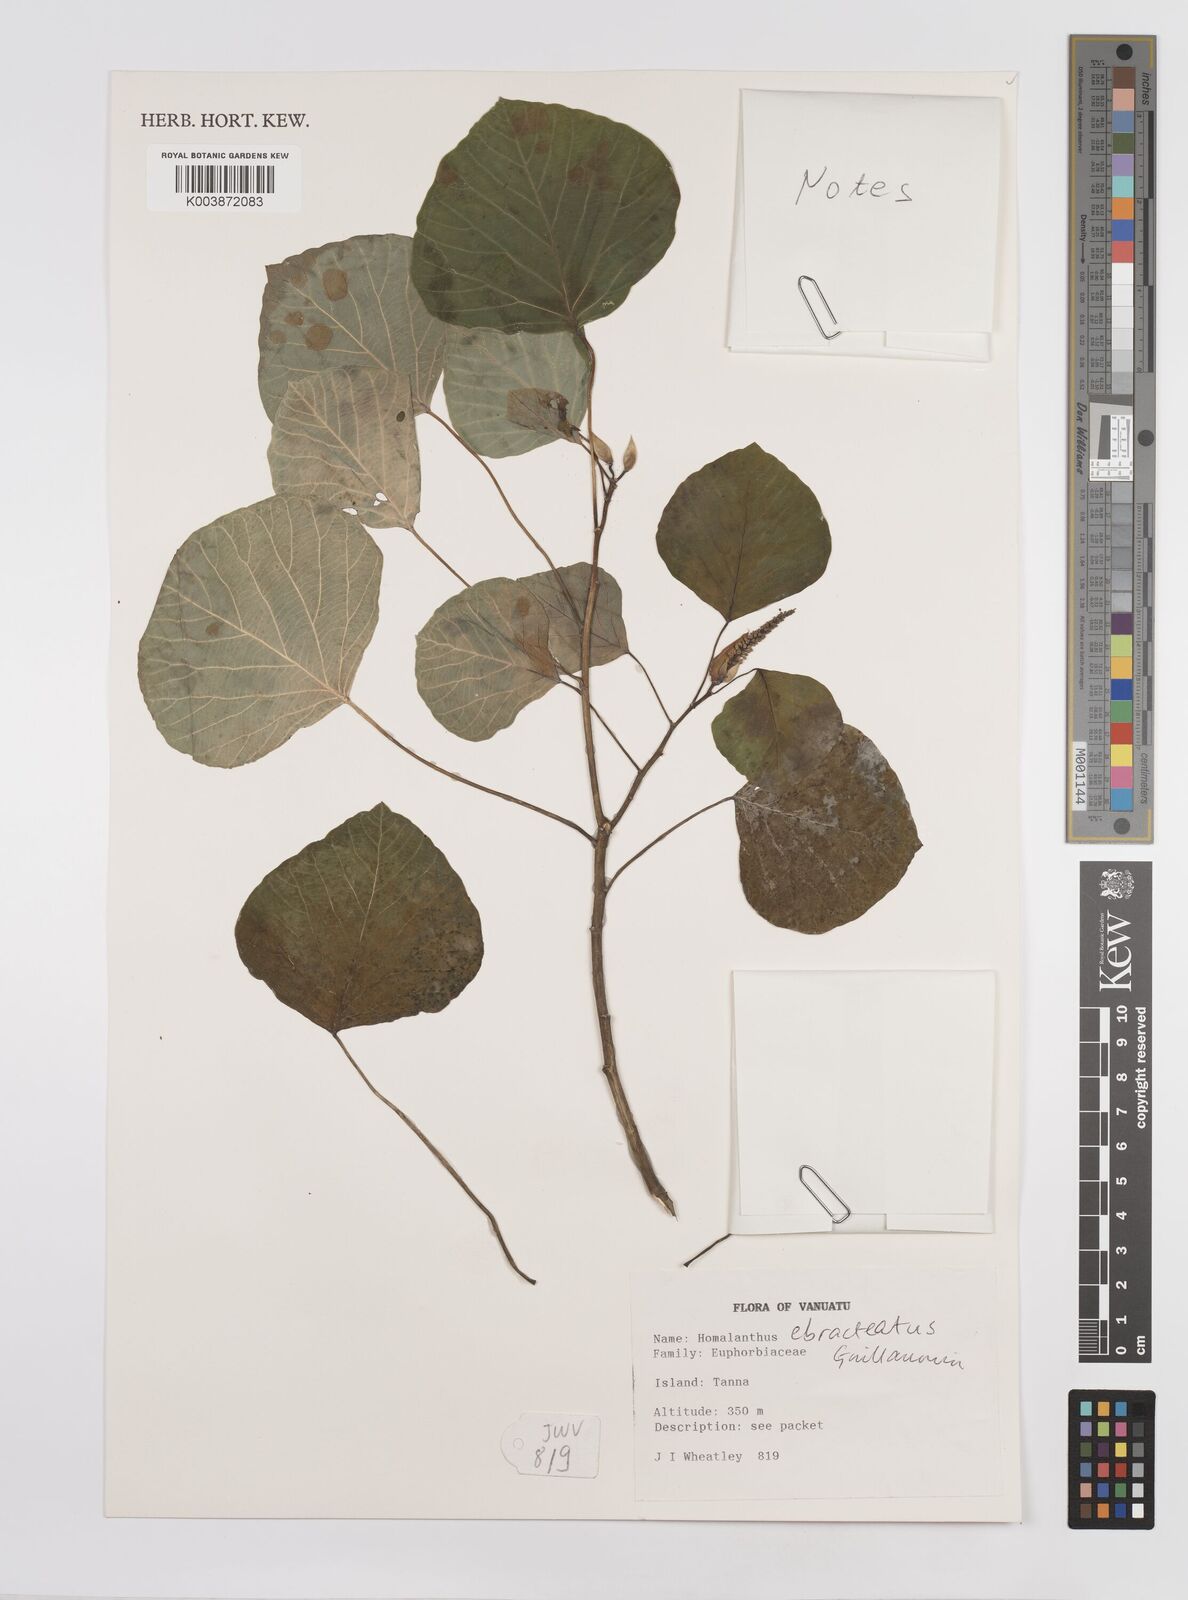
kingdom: Plantae
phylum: Tracheophyta
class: Magnoliopsida
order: Malpighiales
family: Euphorbiaceae
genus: Homalanthus
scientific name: Homalanthus ebracteatua
